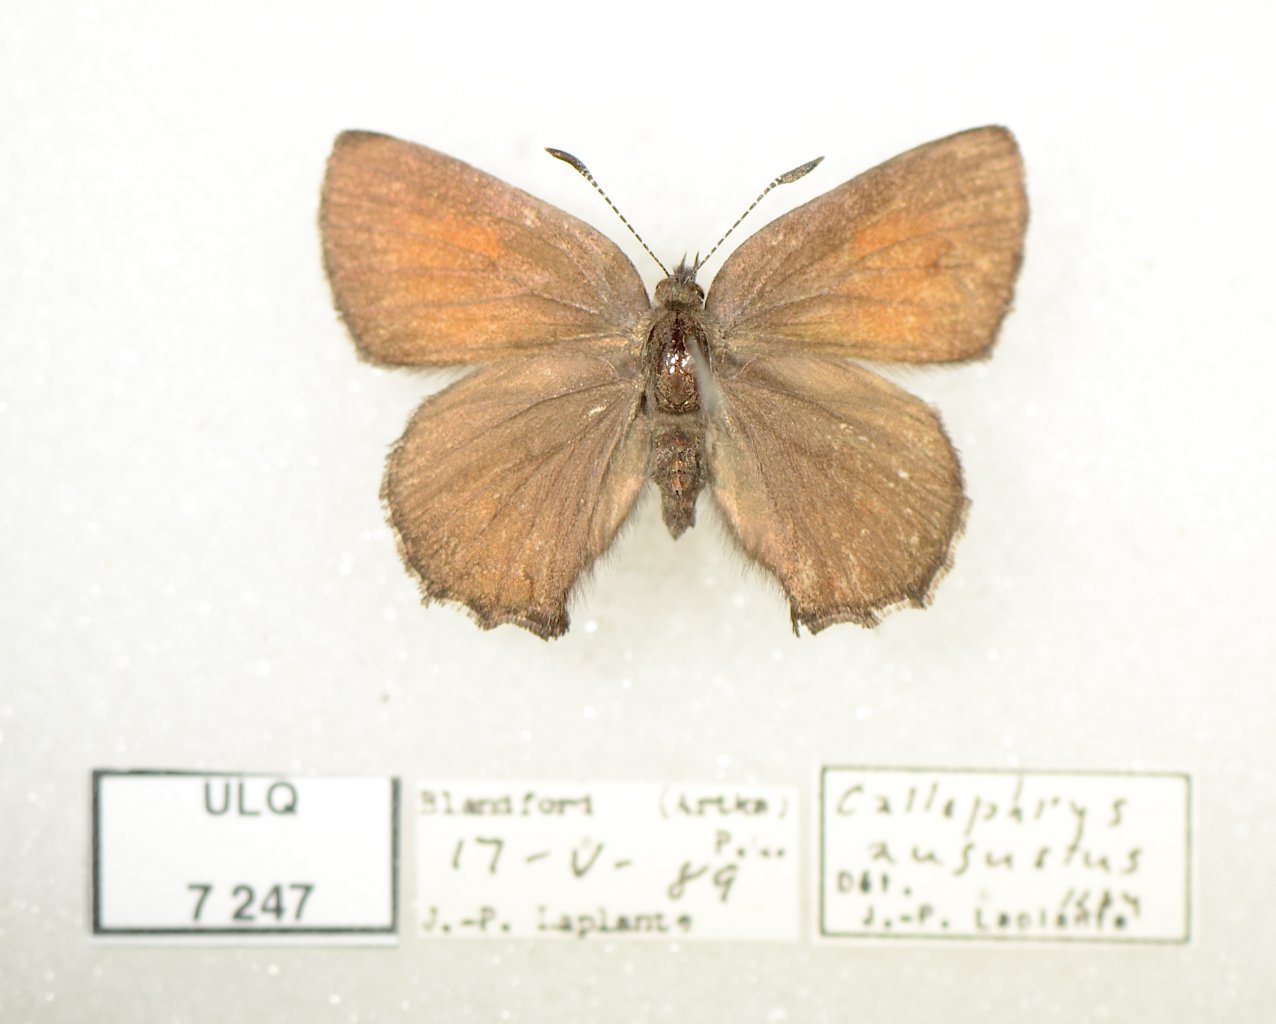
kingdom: Animalia
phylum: Arthropoda
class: Insecta
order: Lepidoptera
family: Lycaenidae
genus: Incisalia
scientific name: Incisalia irioides
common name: Brown Elfin
